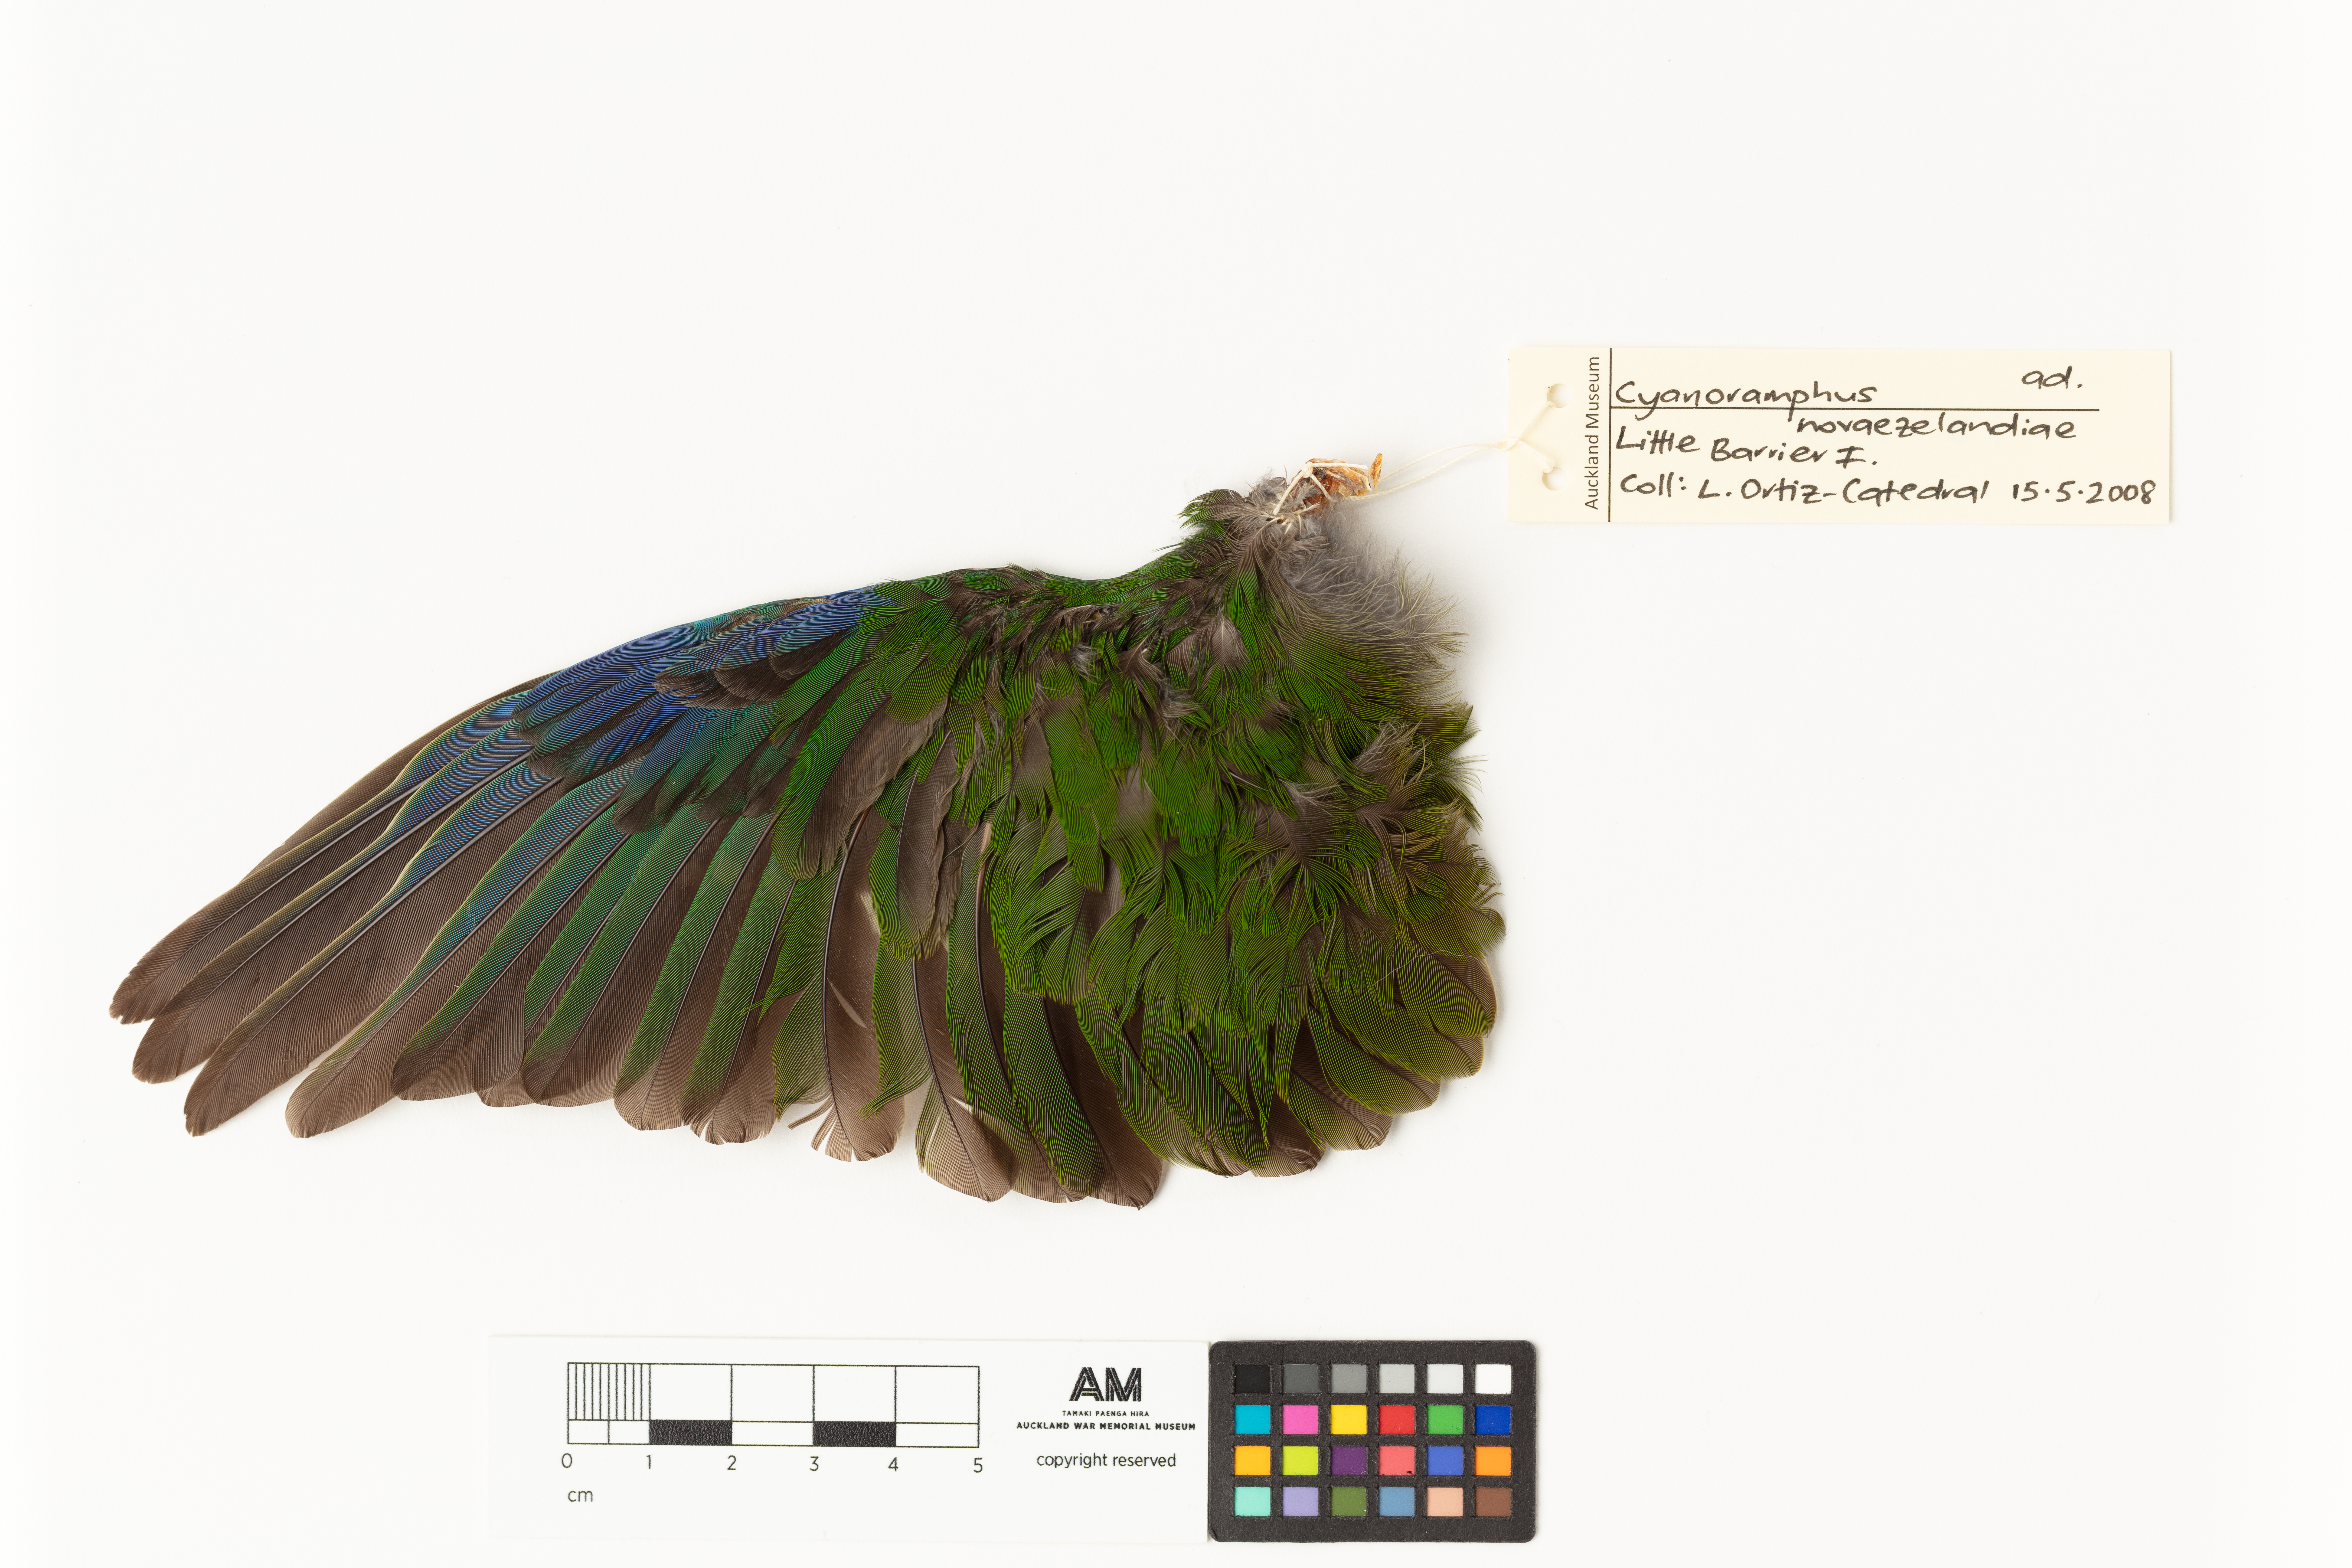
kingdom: Animalia
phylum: Chordata
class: Aves
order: Psittaciformes
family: Psittacidae
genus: Cyanoramphus
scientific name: Cyanoramphus novaezelandiae
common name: Red-fronted parakeet
